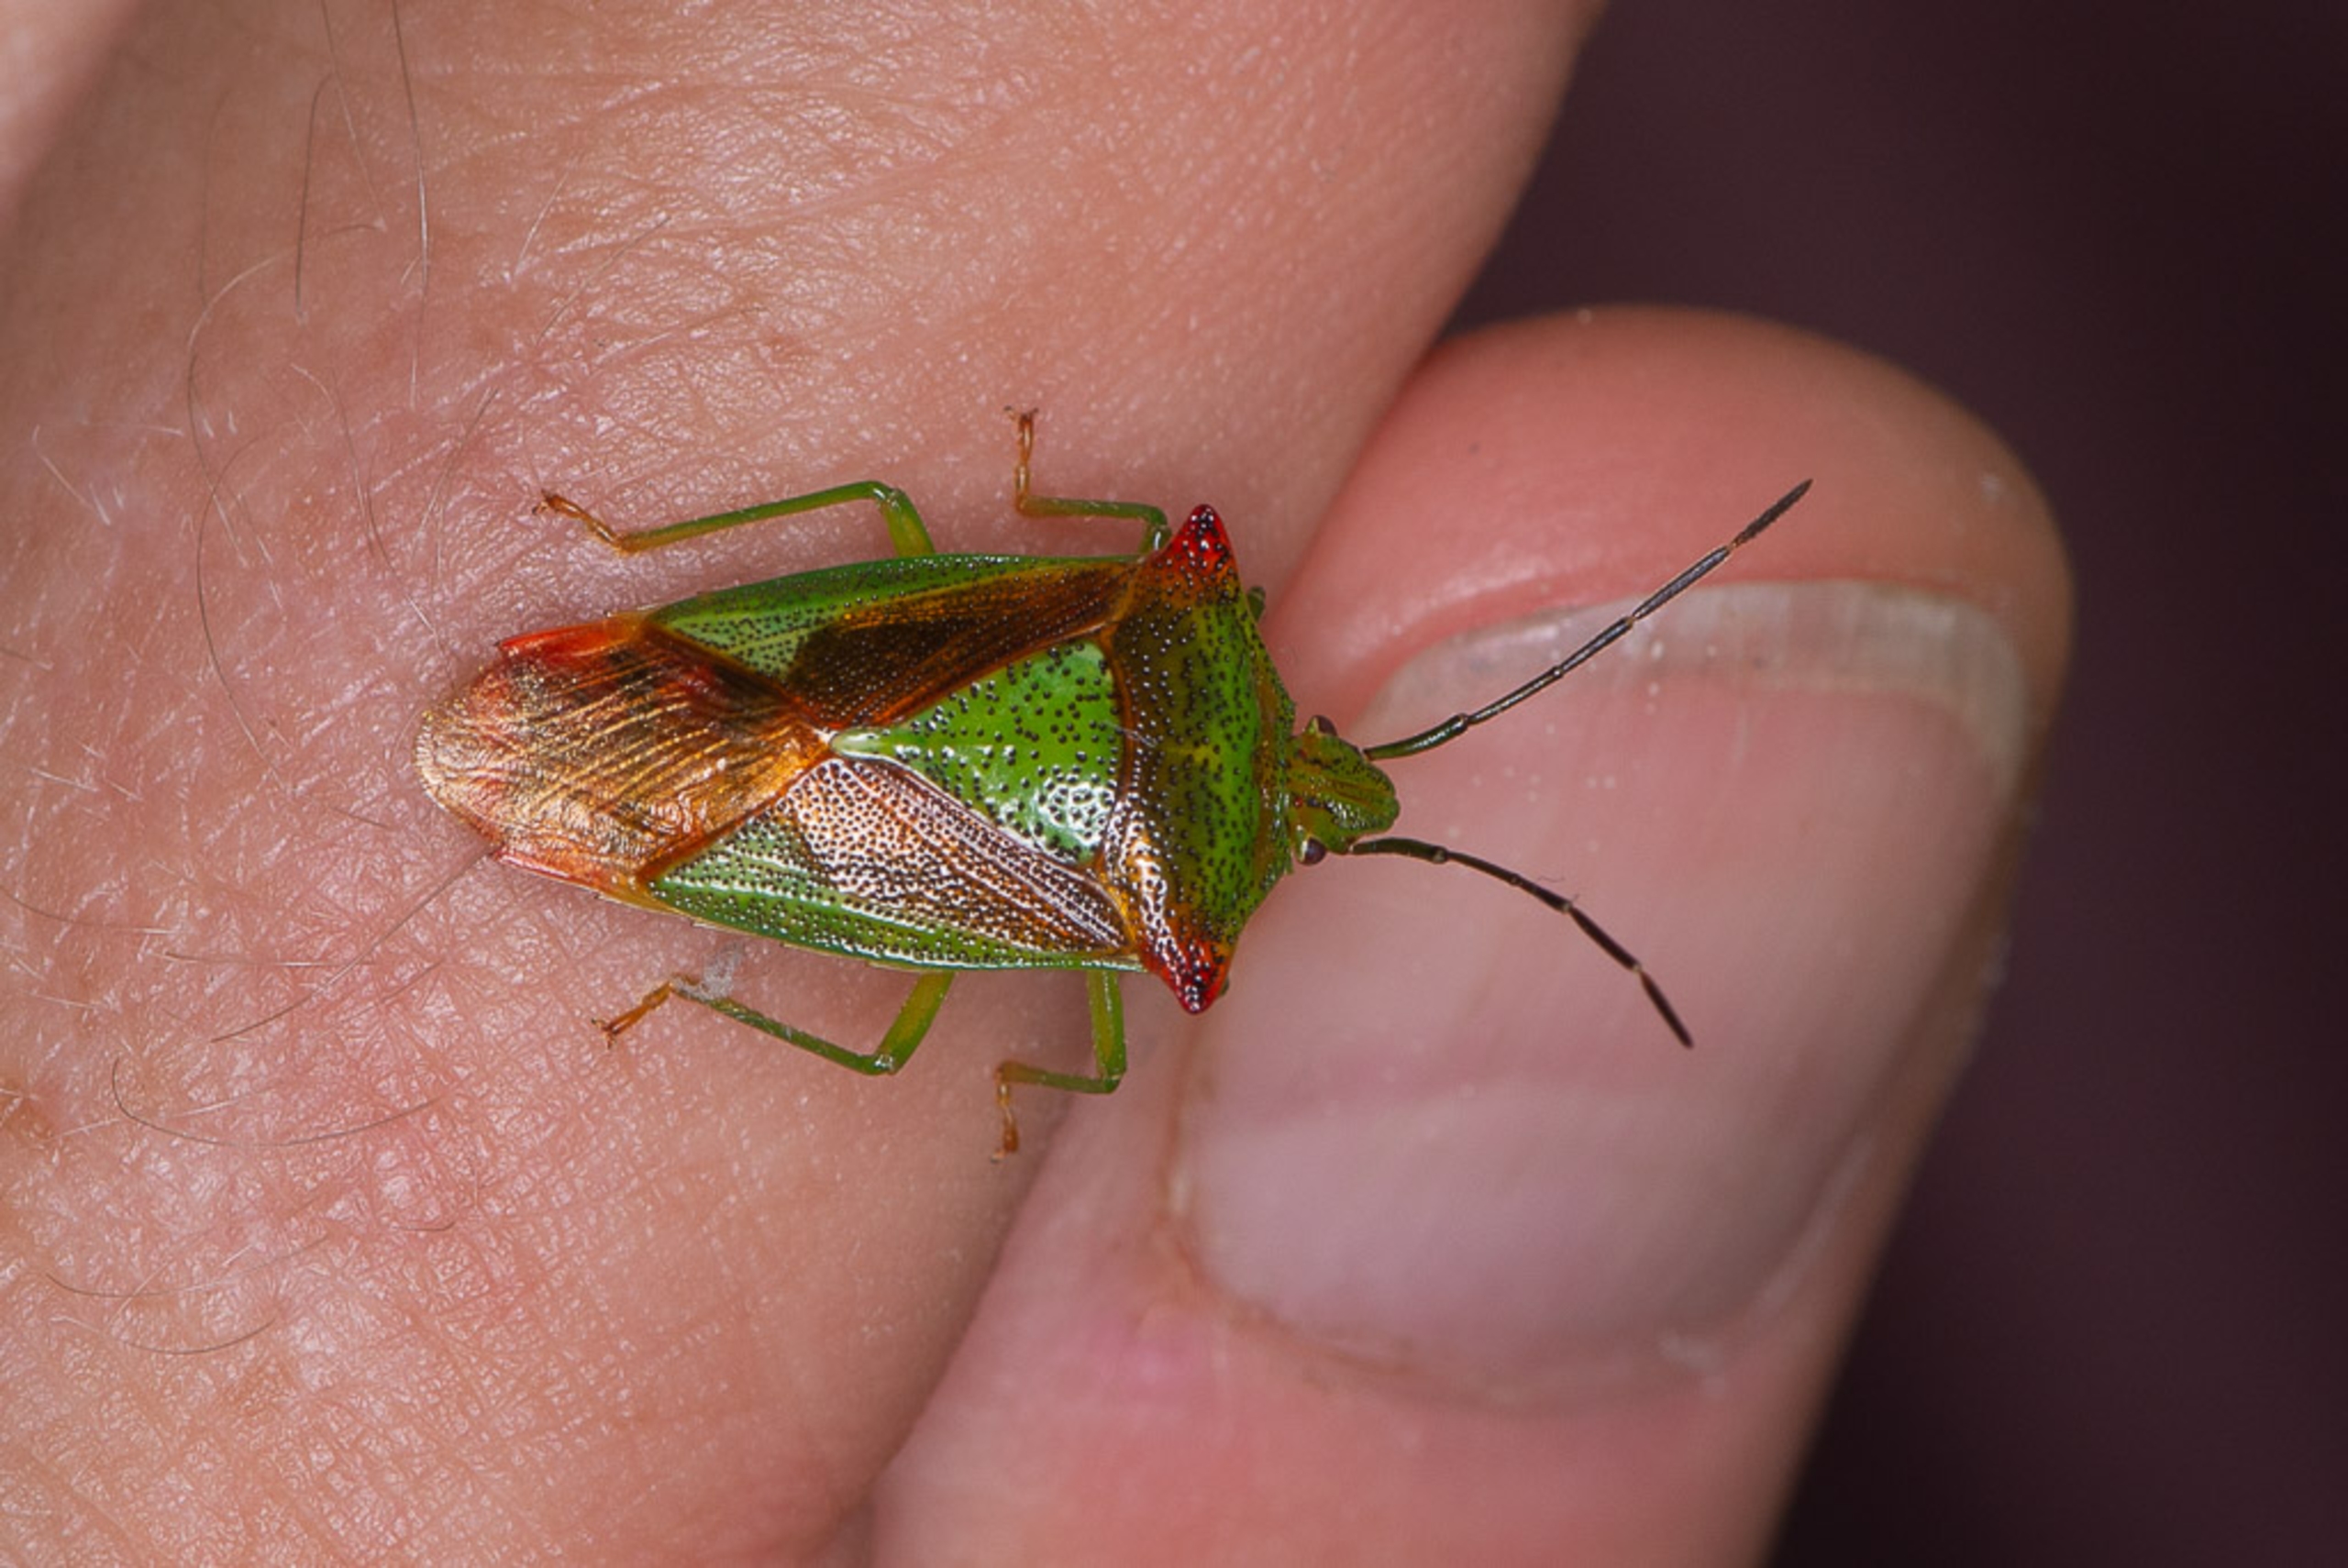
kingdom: Animalia
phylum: Arthropoda
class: Insecta
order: Hemiptera
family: Acanthosomatidae
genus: Acanthosoma
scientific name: Acanthosoma haemorrhoidale
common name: Stor løvtæge
